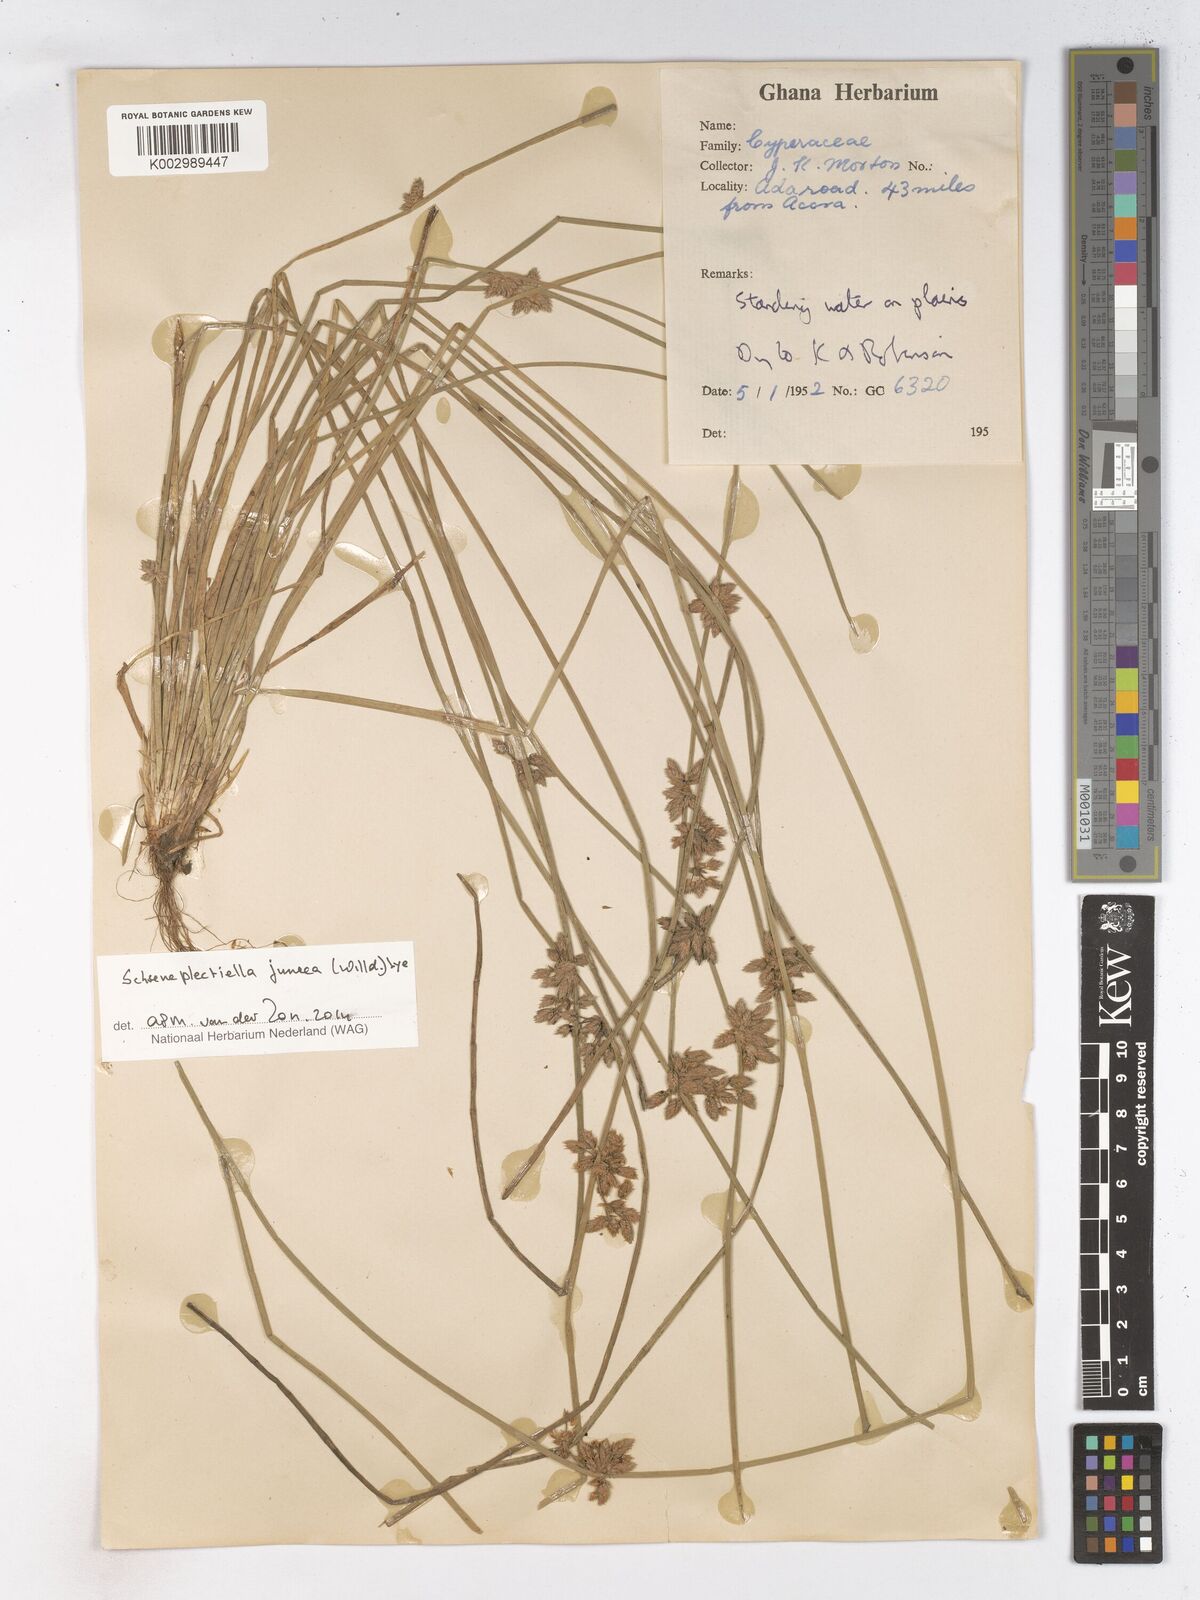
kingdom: Plantae
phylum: Tracheophyta
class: Liliopsida
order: Poales
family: Cyperaceae
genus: Schoenoplectiella
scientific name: Schoenoplectiella juncea
